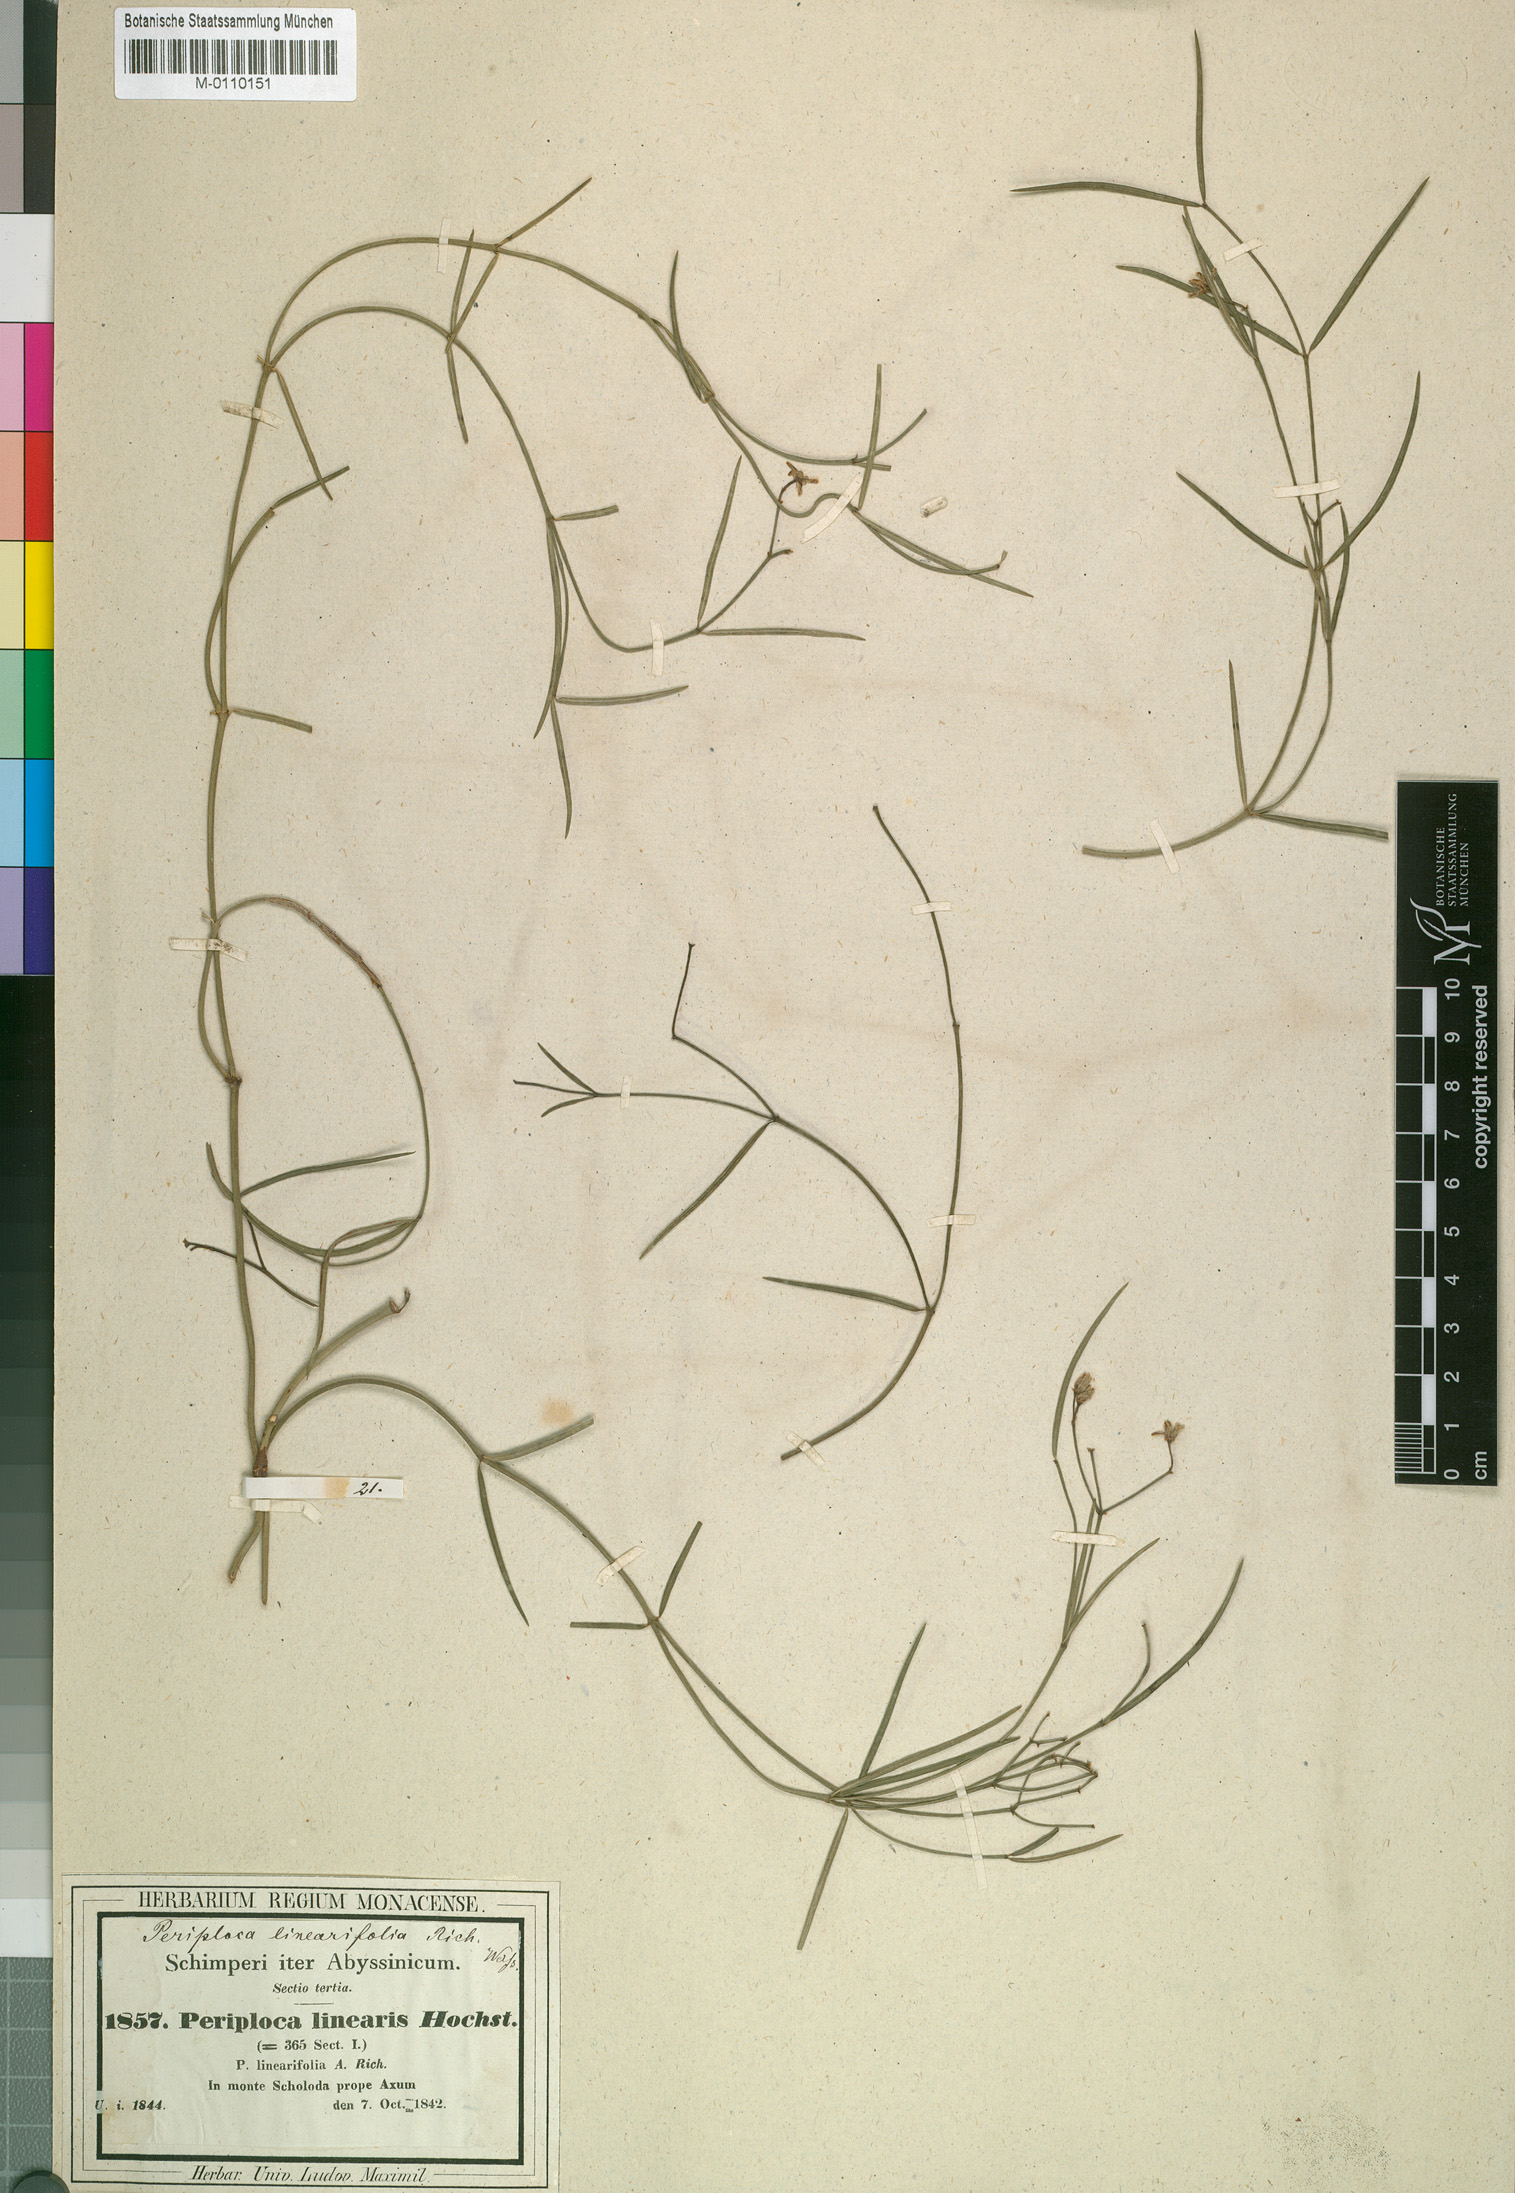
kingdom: Plantae
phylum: Tracheophyta
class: Magnoliopsida
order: Gentianales
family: Apocynaceae
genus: Periploca
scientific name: Periploca linearifolia
